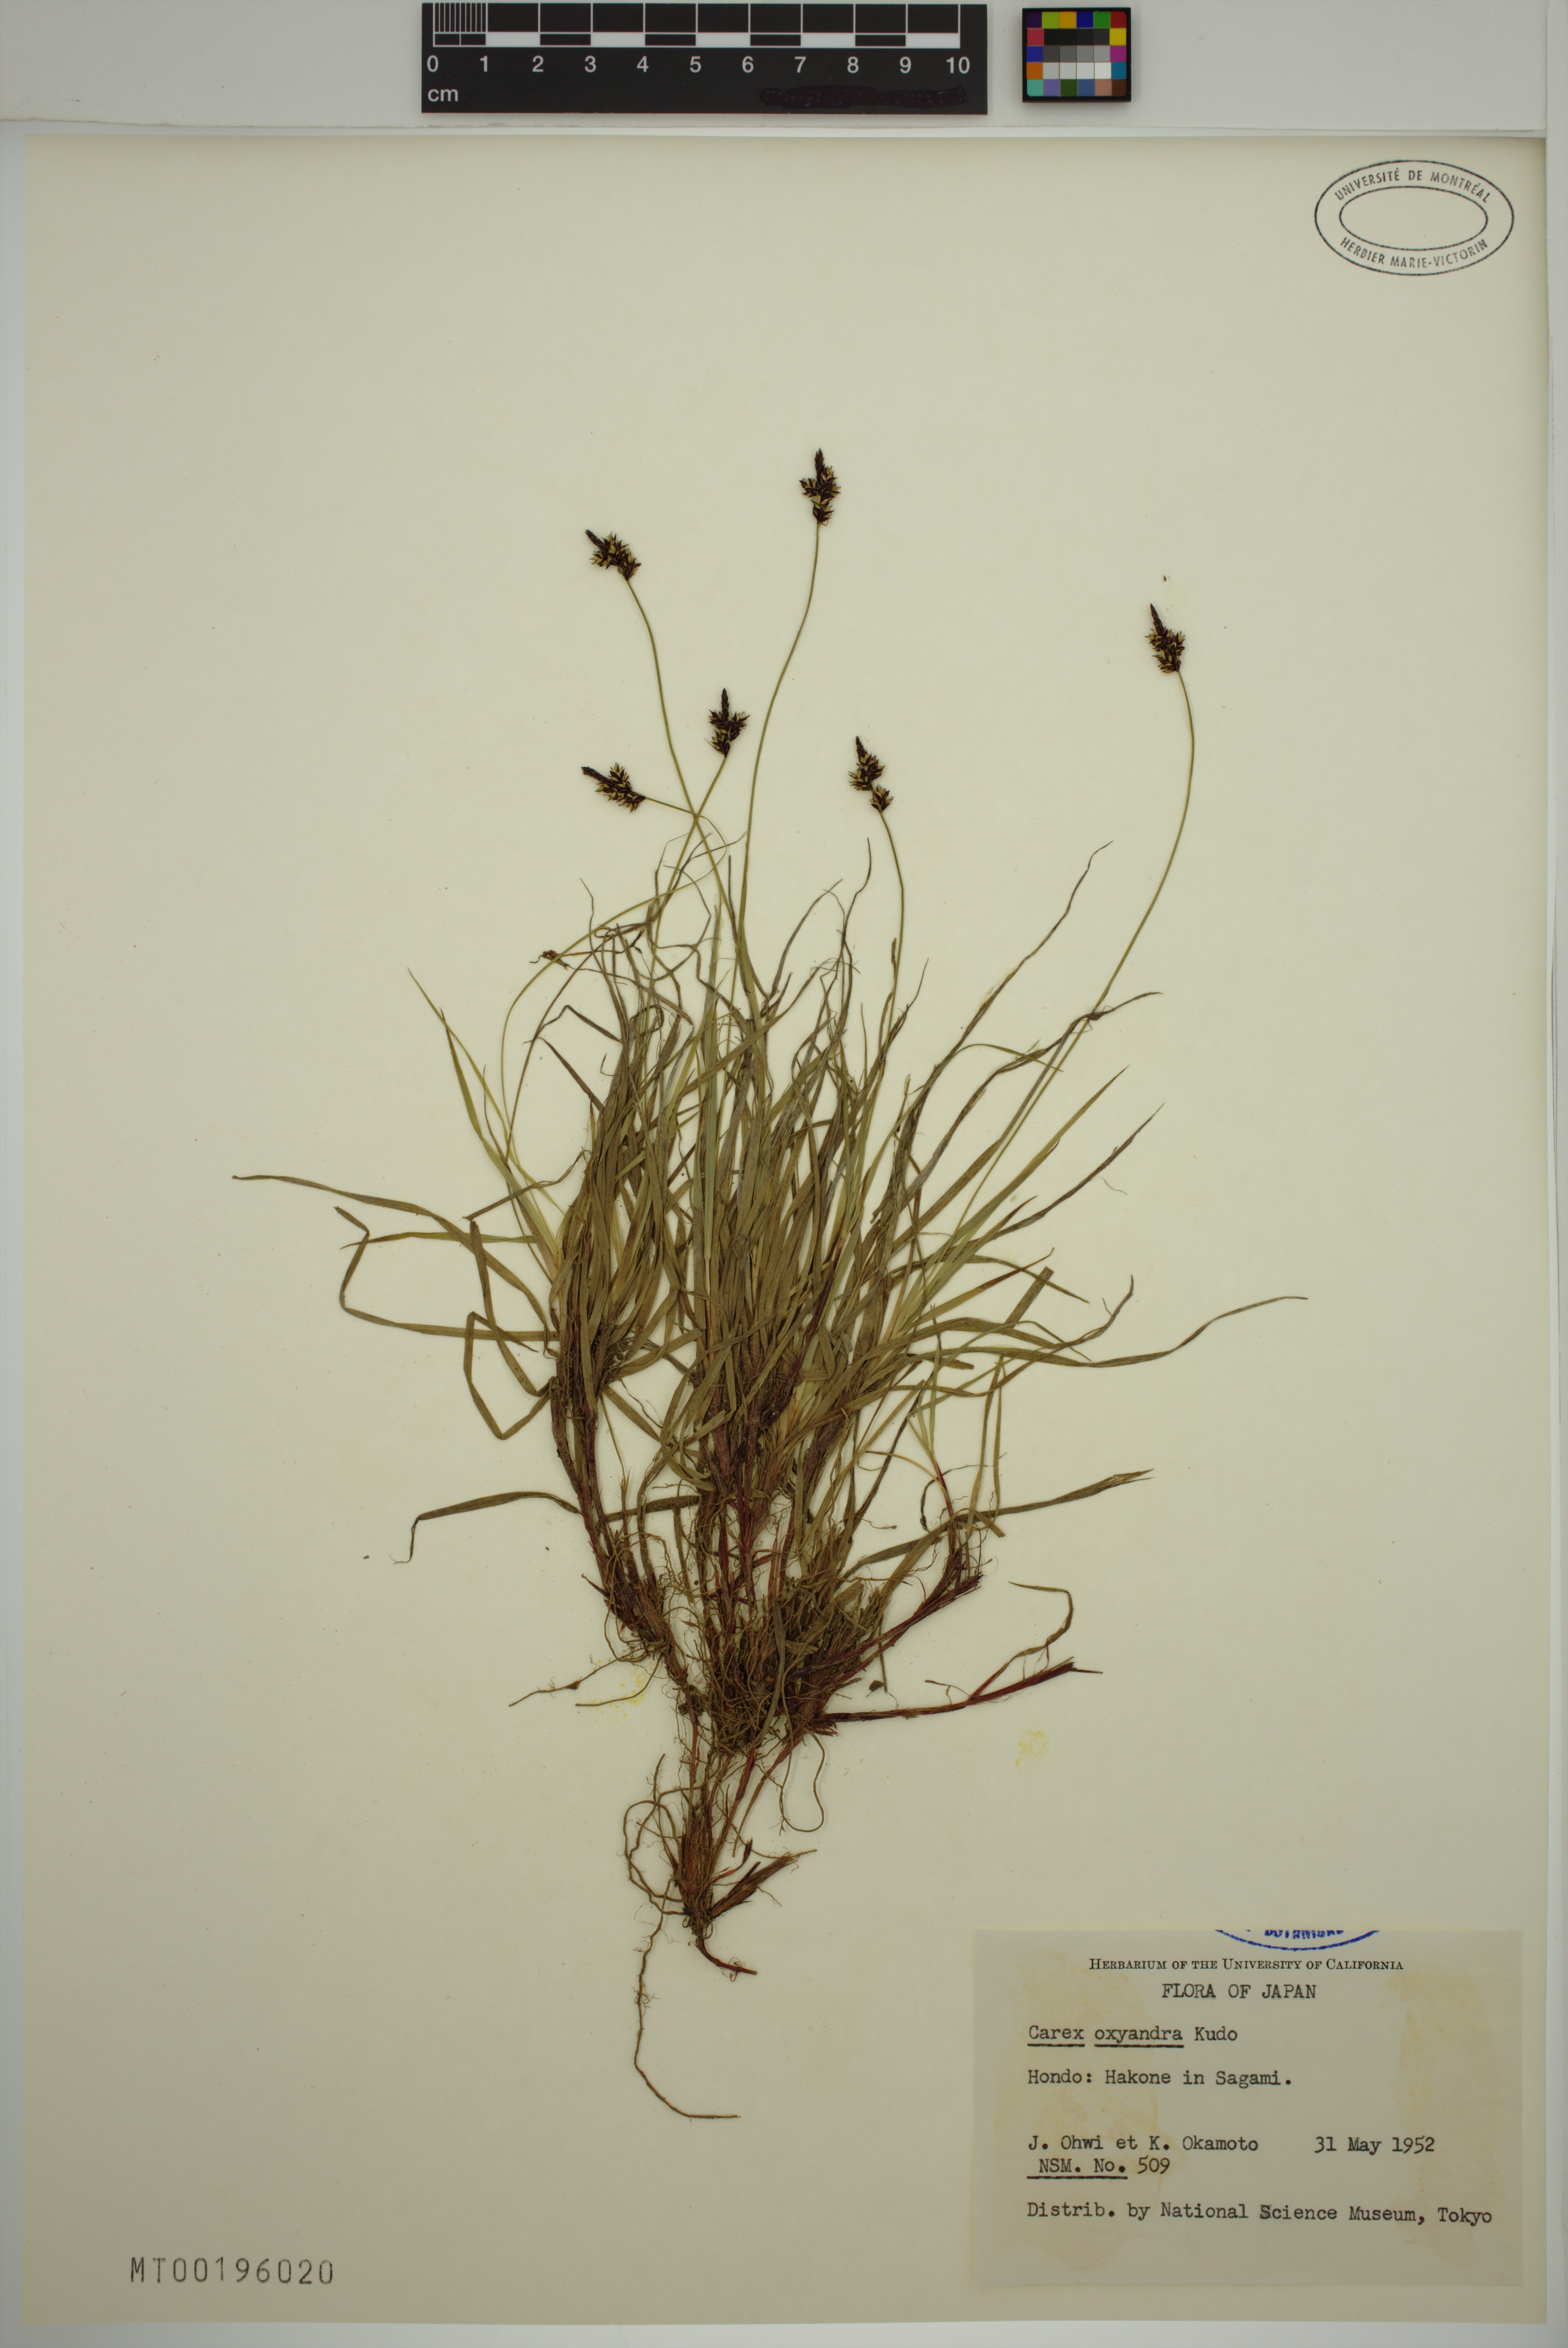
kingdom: Plantae
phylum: Tracheophyta
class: Liliopsida
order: Poales
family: Cyperaceae
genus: Carex
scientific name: Carex oxyandra
